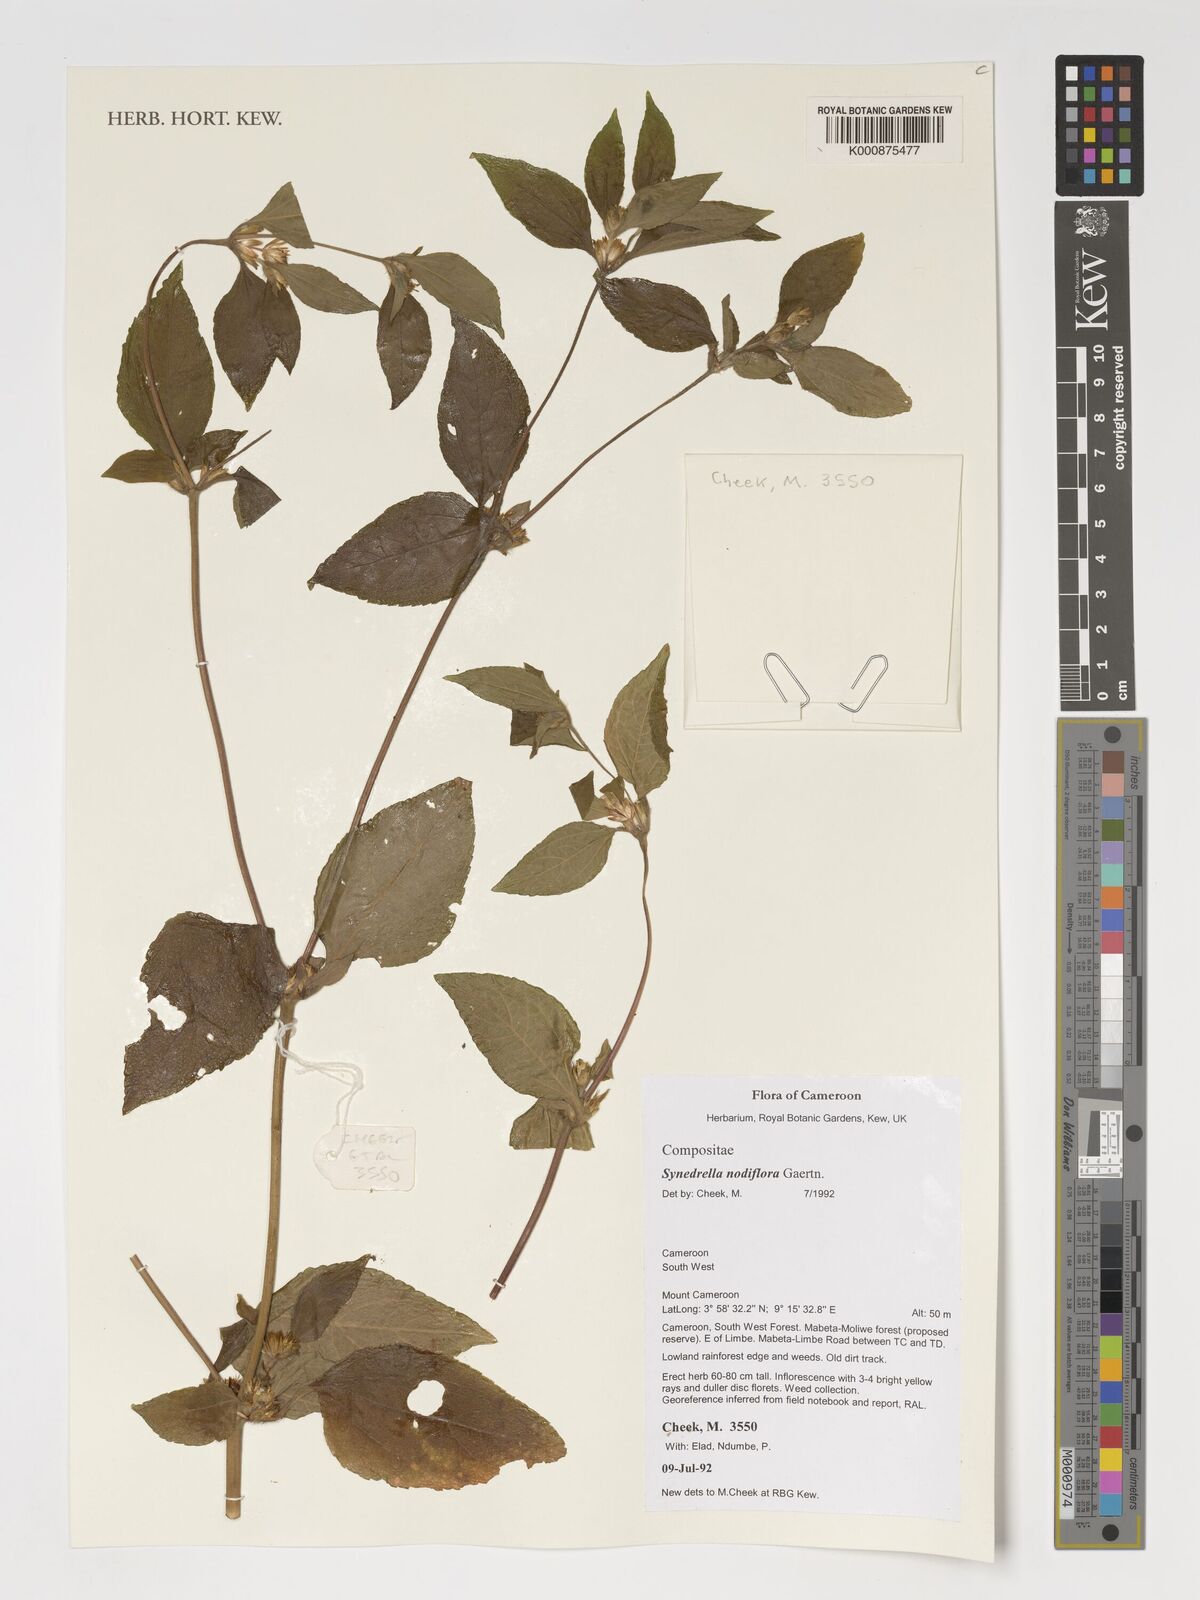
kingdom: Plantae
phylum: Tracheophyta
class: Magnoliopsida
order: Asterales
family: Asteraceae
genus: Synedrella
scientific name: Synedrella nodiflora
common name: Nodeweed
